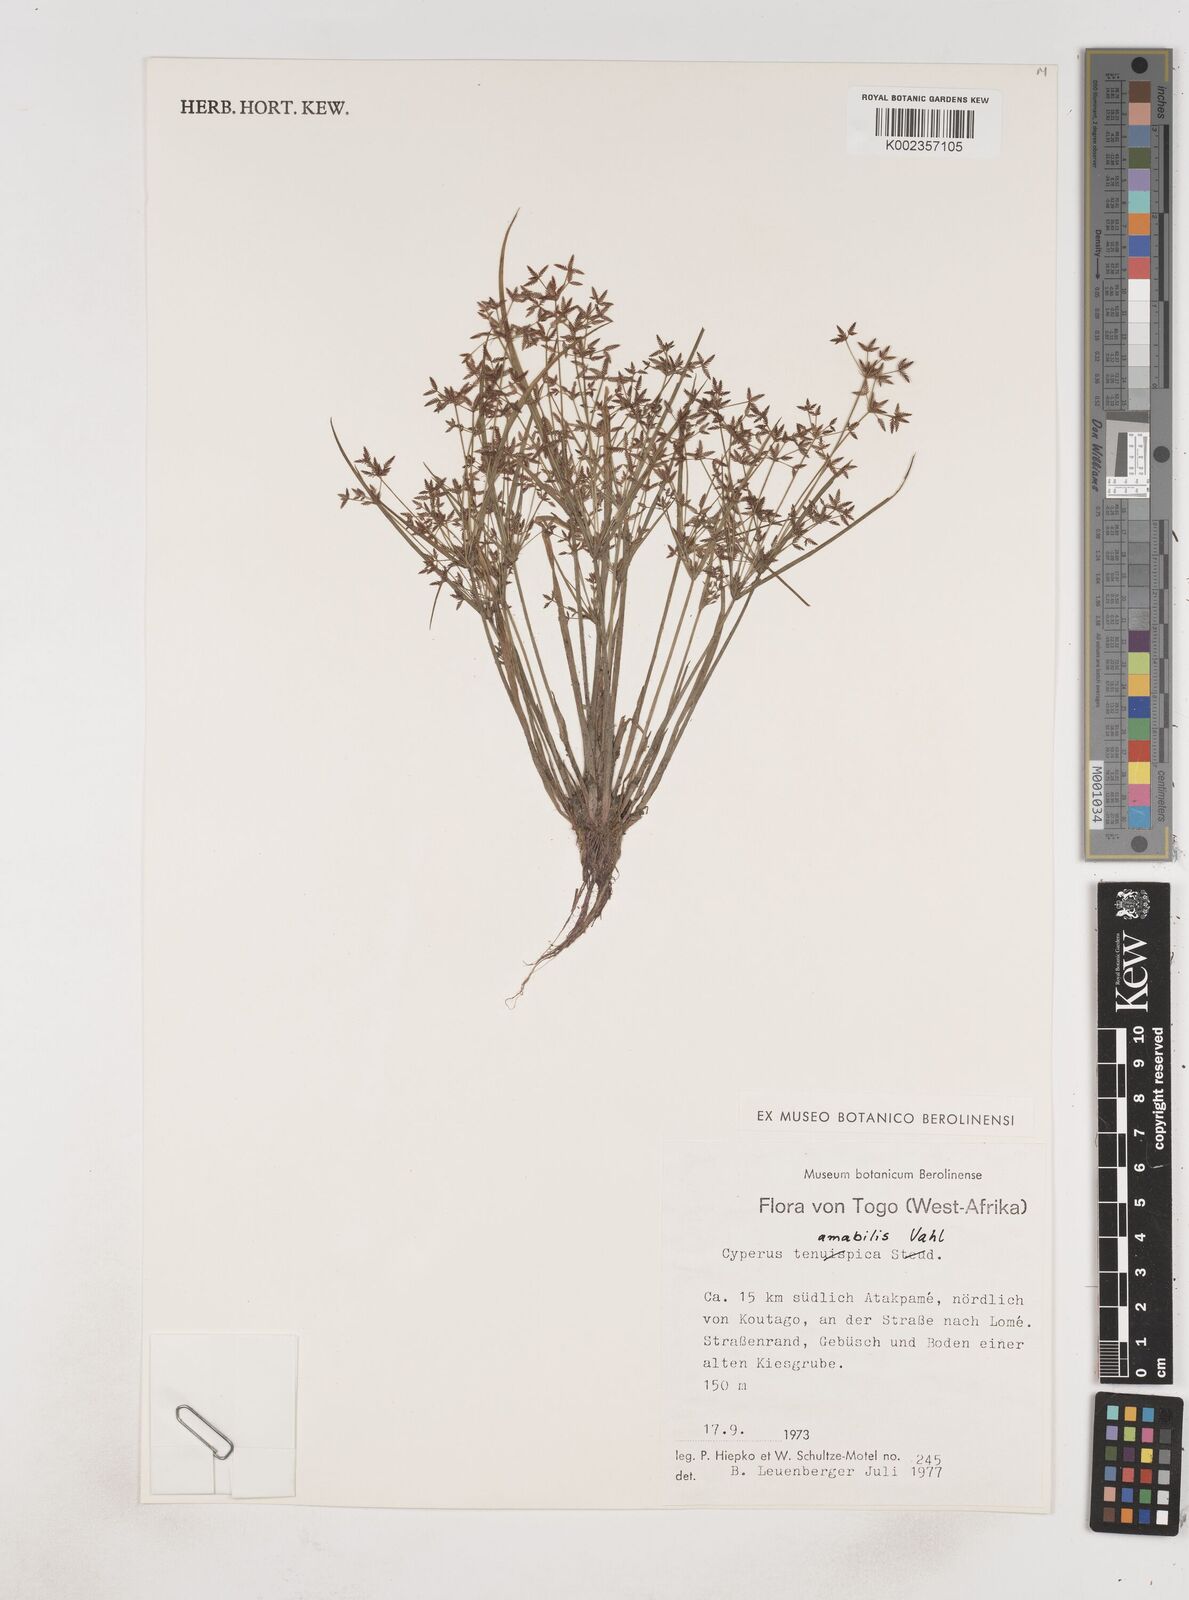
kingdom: Plantae
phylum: Tracheophyta
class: Liliopsida
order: Poales
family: Cyperaceae
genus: Cyperus
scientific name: Cyperus amabilis
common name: Foothill flat sedge
